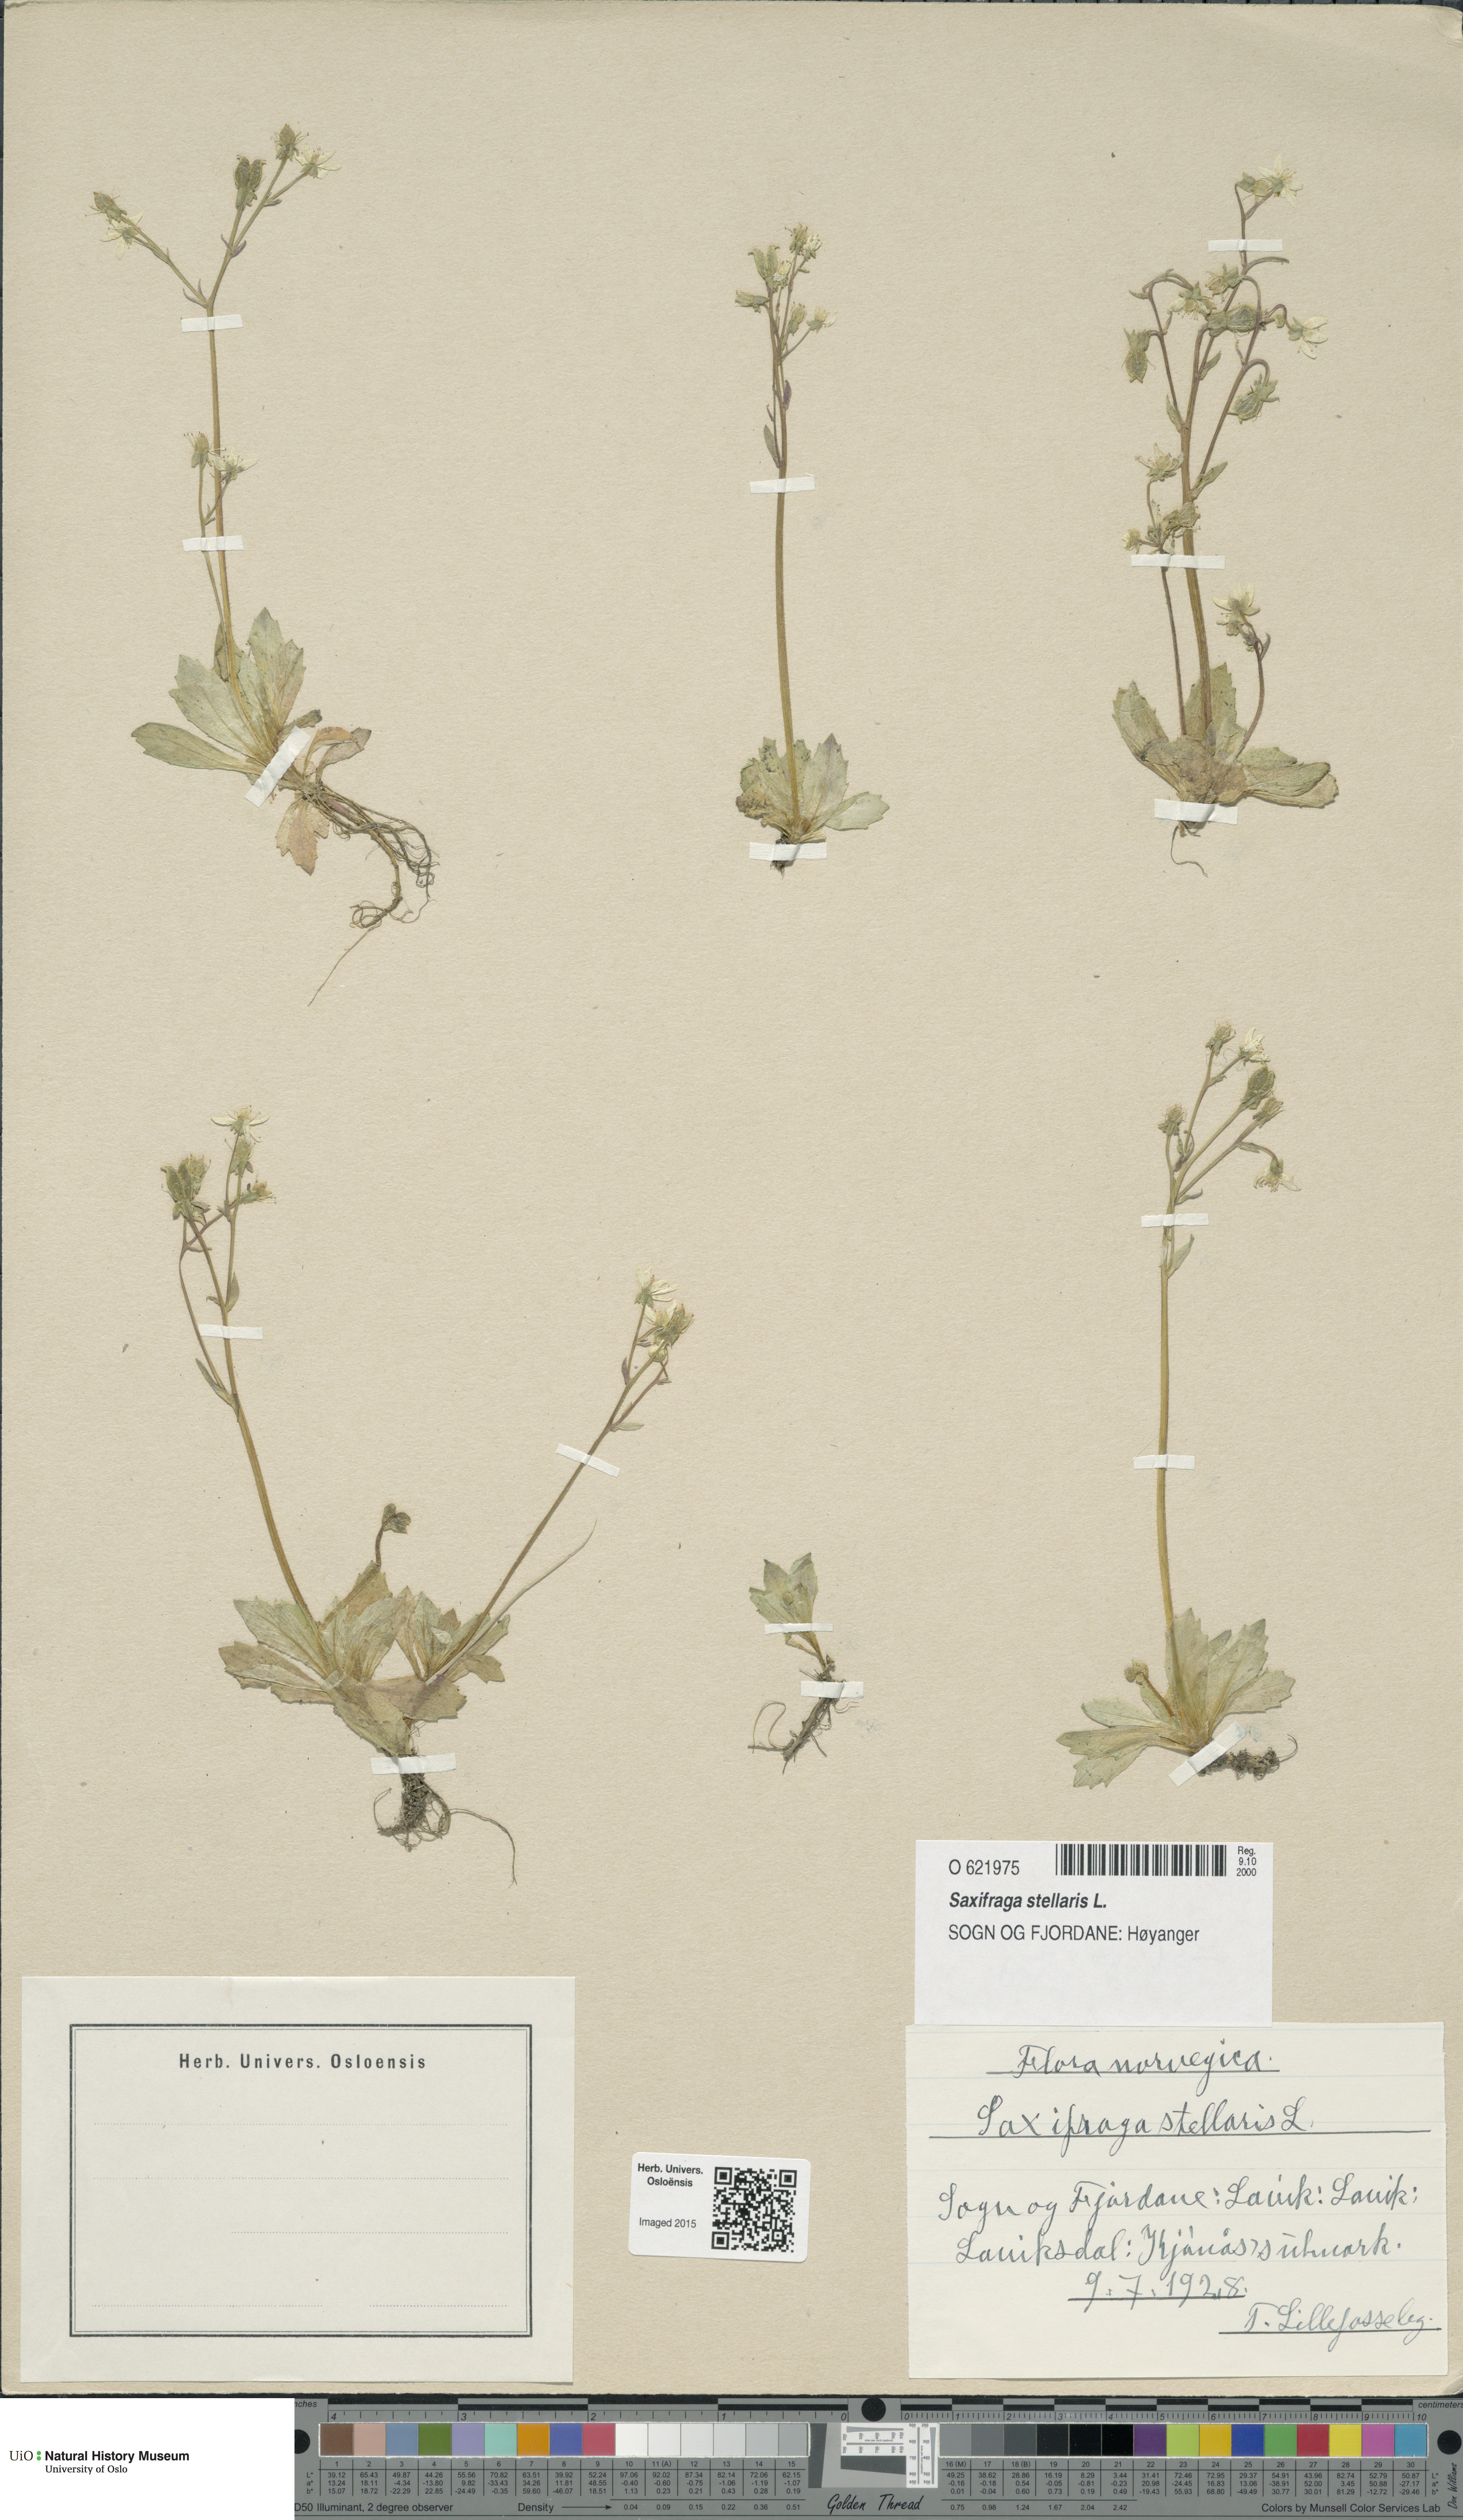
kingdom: Plantae
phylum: Tracheophyta
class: Magnoliopsida
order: Saxifragales
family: Saxifragaceae
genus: Micranthes
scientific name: Micranthes stellaris
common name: Starry saxifrage
